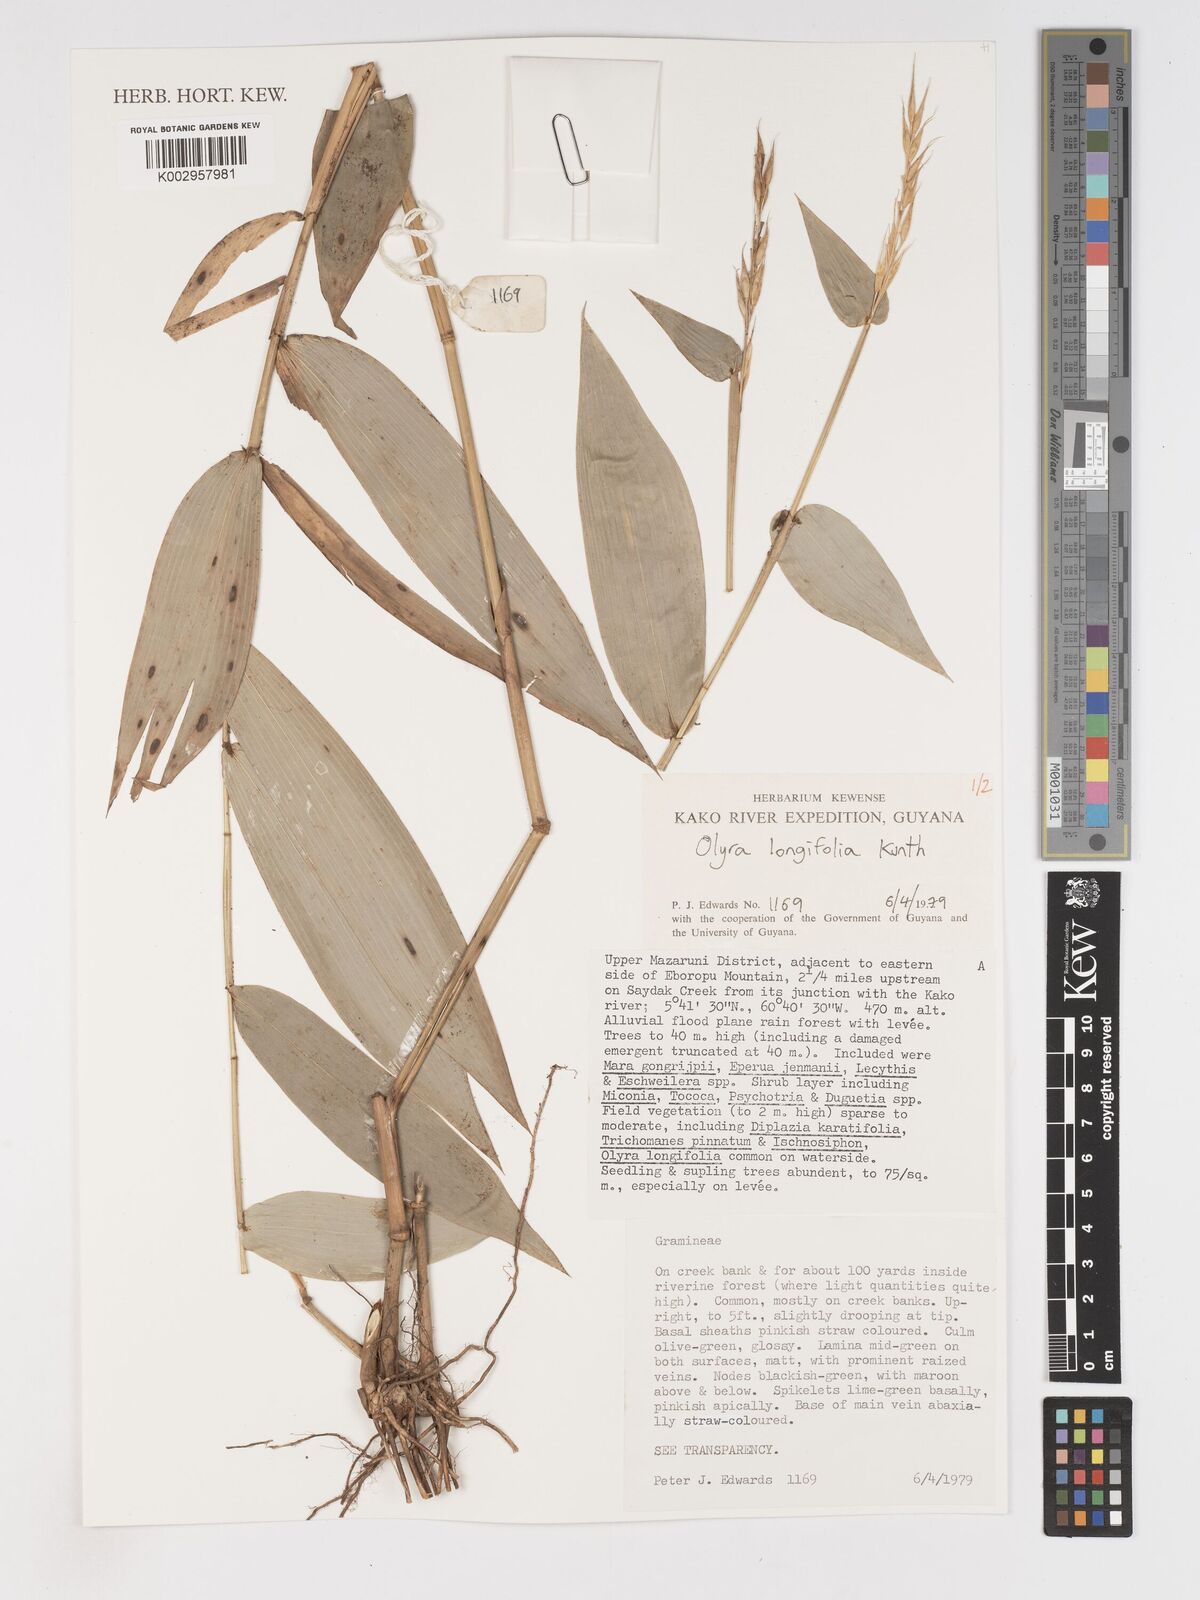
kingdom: Plantae
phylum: Tracheophyta
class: Liliopsida
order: Poales
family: Poaceae
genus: Olyra
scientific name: Olyra longifolia
